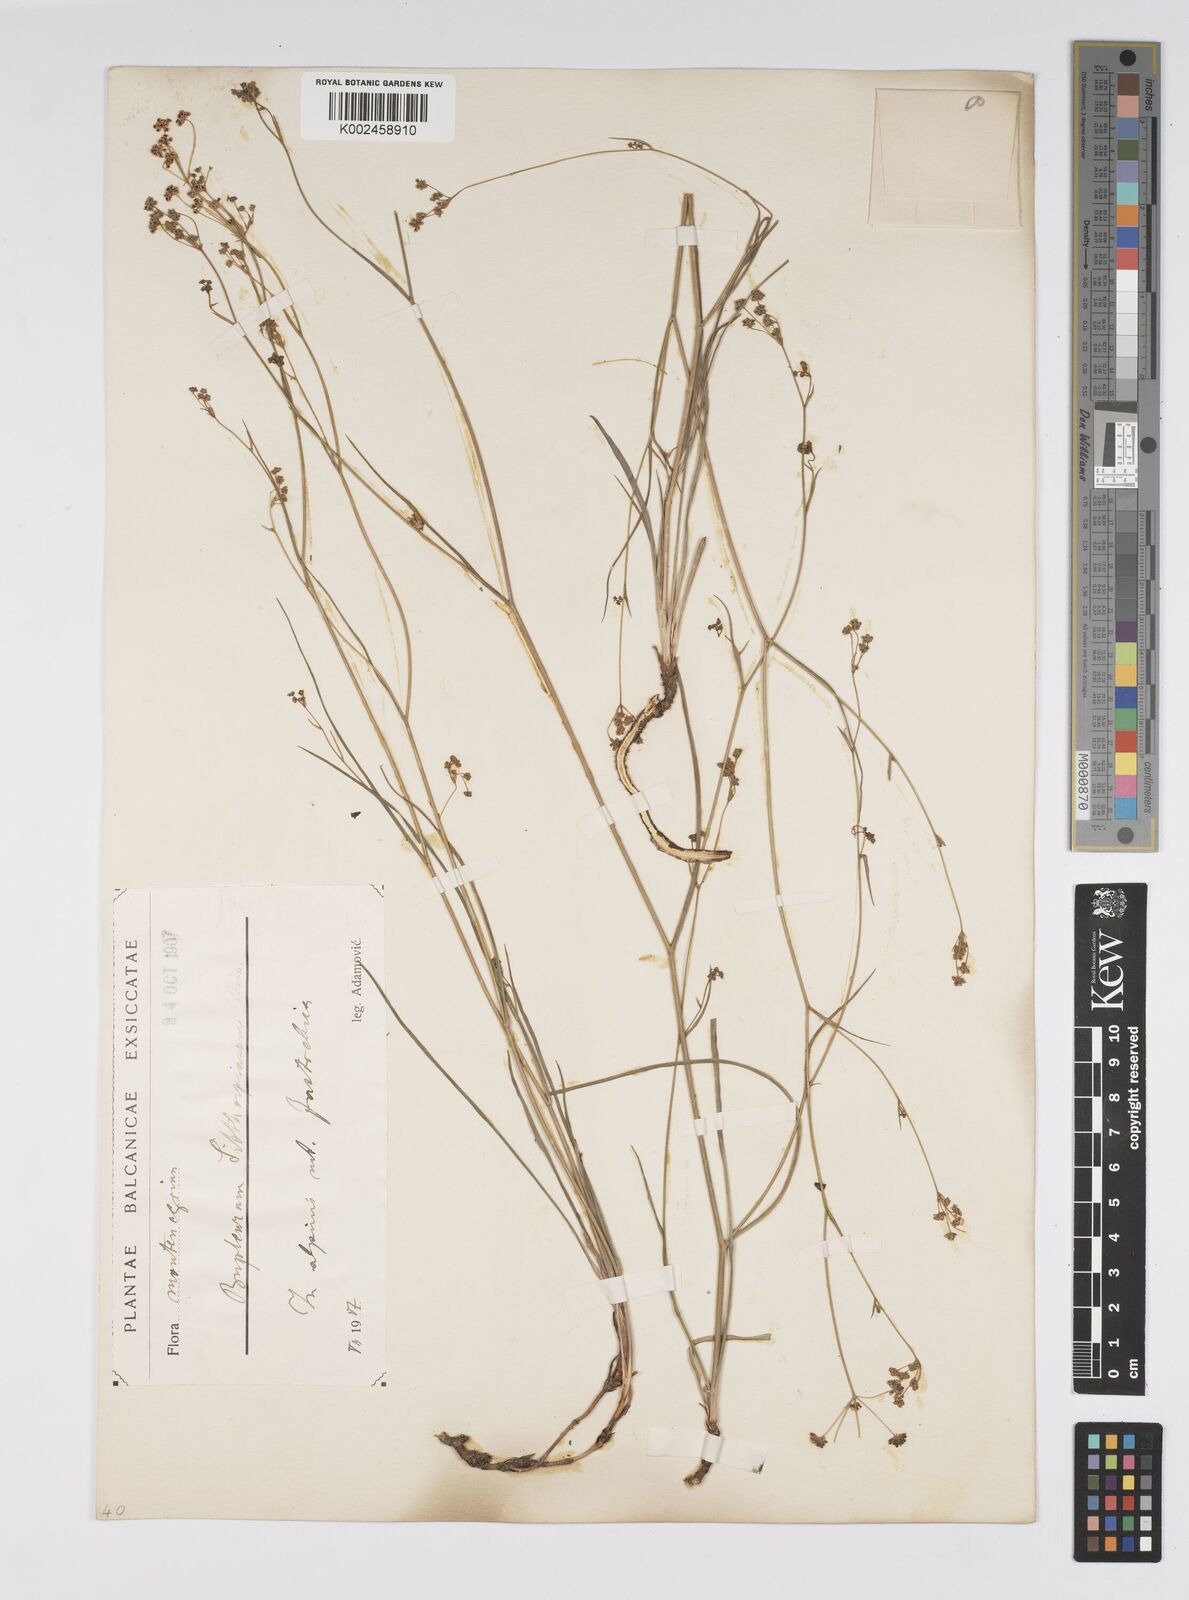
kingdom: Plantae
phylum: Tracheophyta
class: Magnoliopsida
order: Apiales
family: Apiaceae
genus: Bupleurum
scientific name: Bupleurum falcatum
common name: Sickle-leaved hare's-ear
